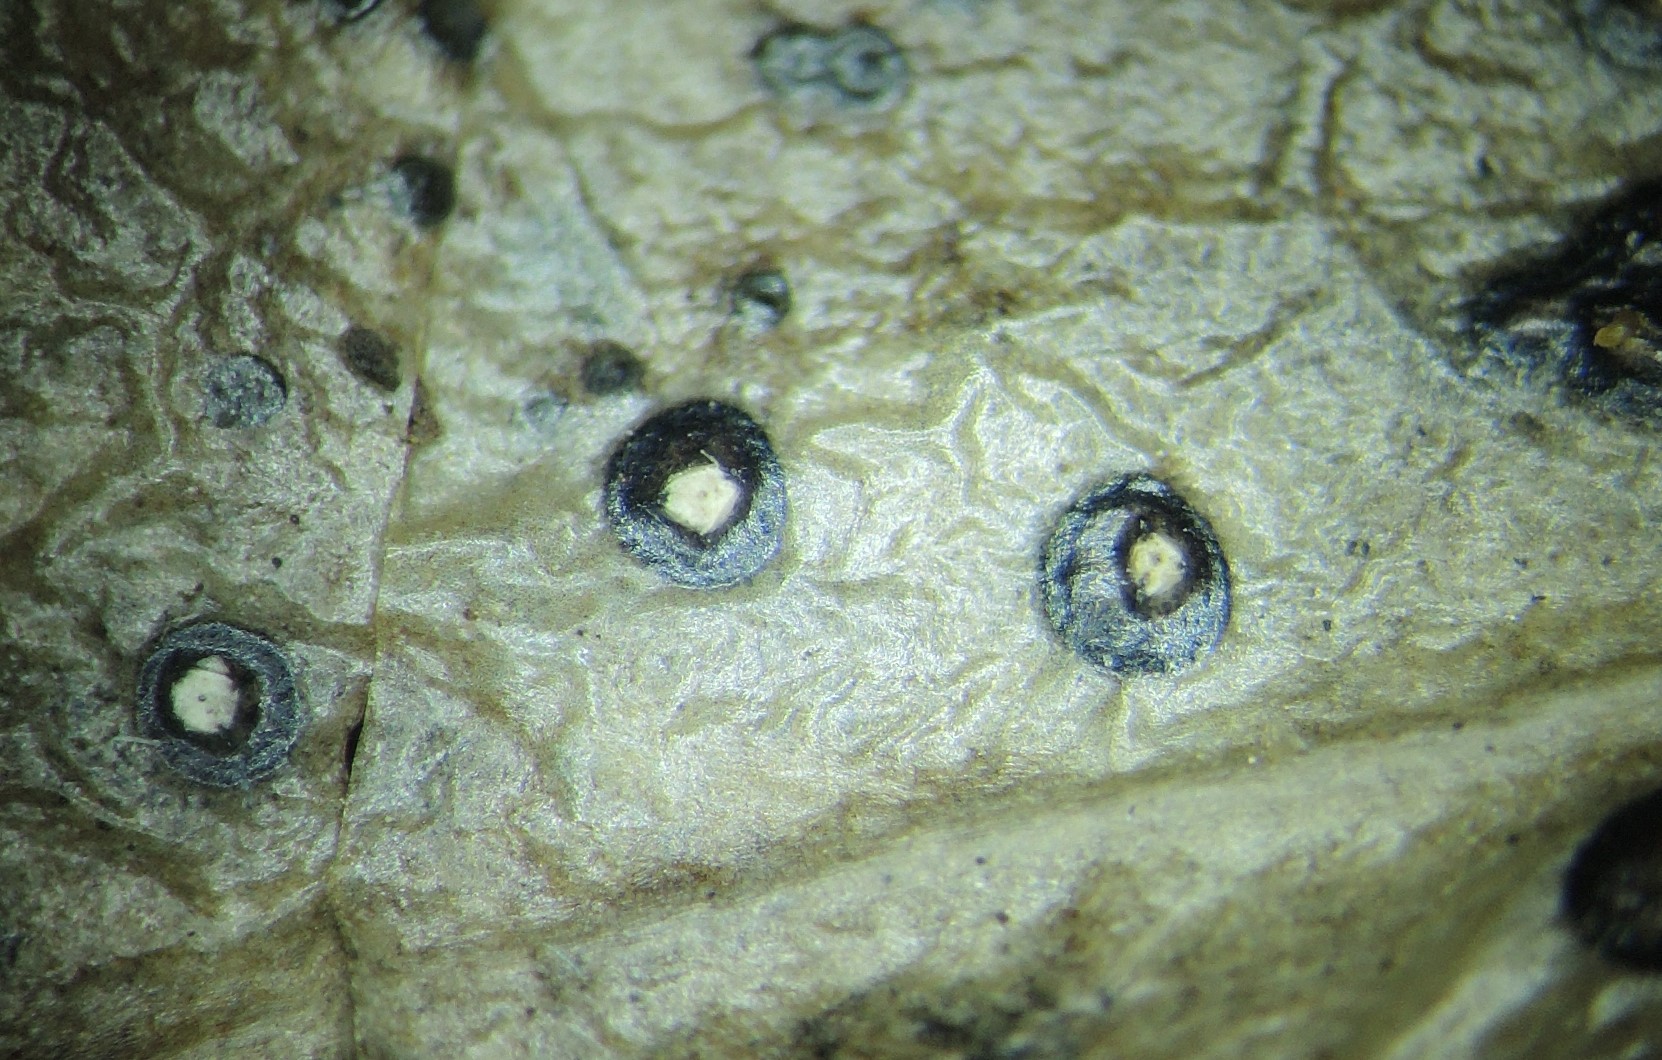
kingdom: Fungi
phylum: Ascomycota
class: Leotiomycetes
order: Phacidiales
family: Phacidiaceae
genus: Phacidium
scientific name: Phacidium lauri
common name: kristtorn-tandskive
